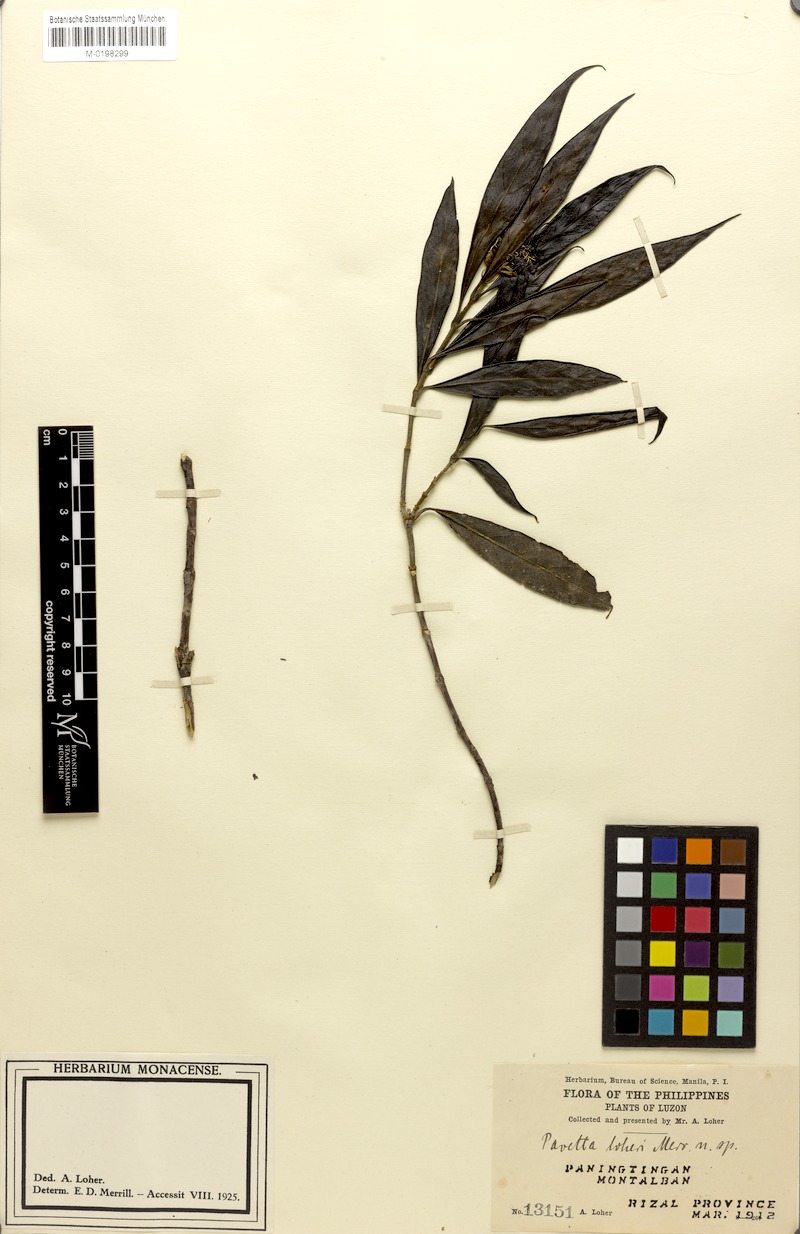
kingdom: Plantae
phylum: Tracheophyta
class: Magnoliopsida
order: Gentianales
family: Rubiaceae
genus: Tarenna
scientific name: Tarenna loheri
